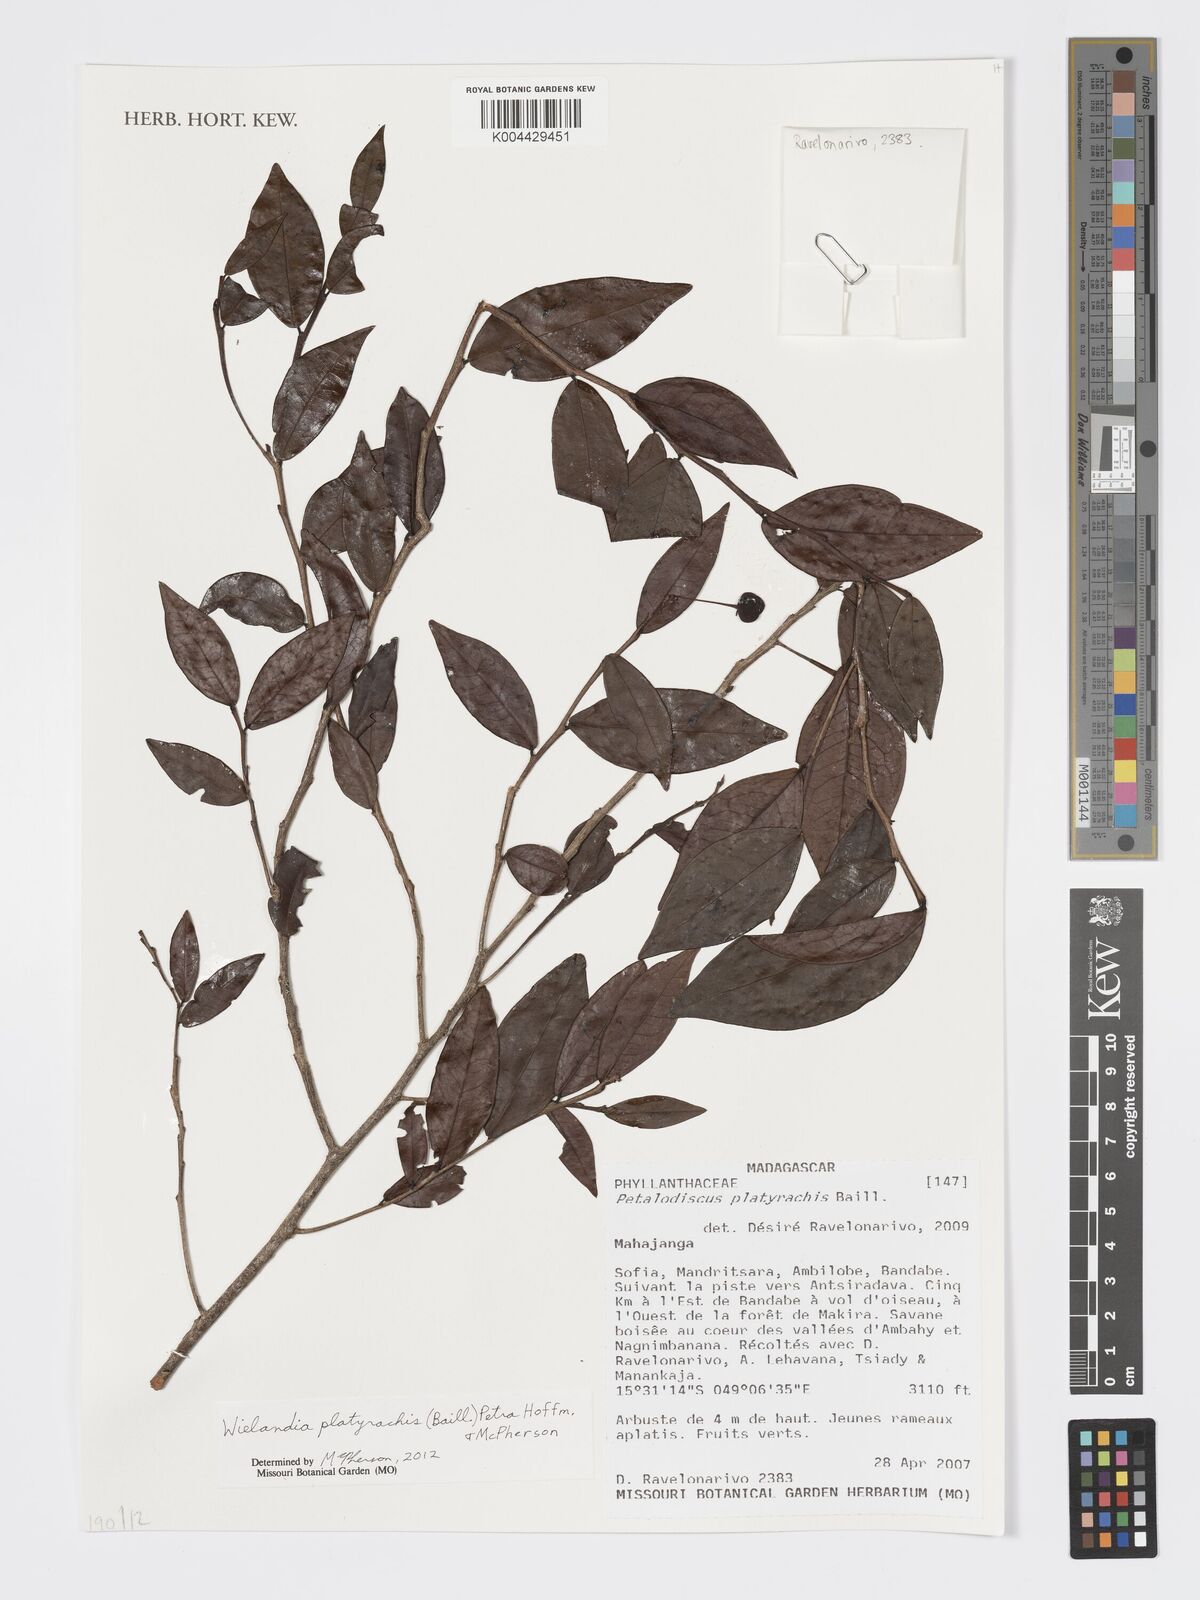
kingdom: Plantae
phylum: Tracheophyta
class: Magnoliopsida
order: Malpighiales
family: Phyllanthaceae
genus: Wielandia
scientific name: Wielandia platyrachis
